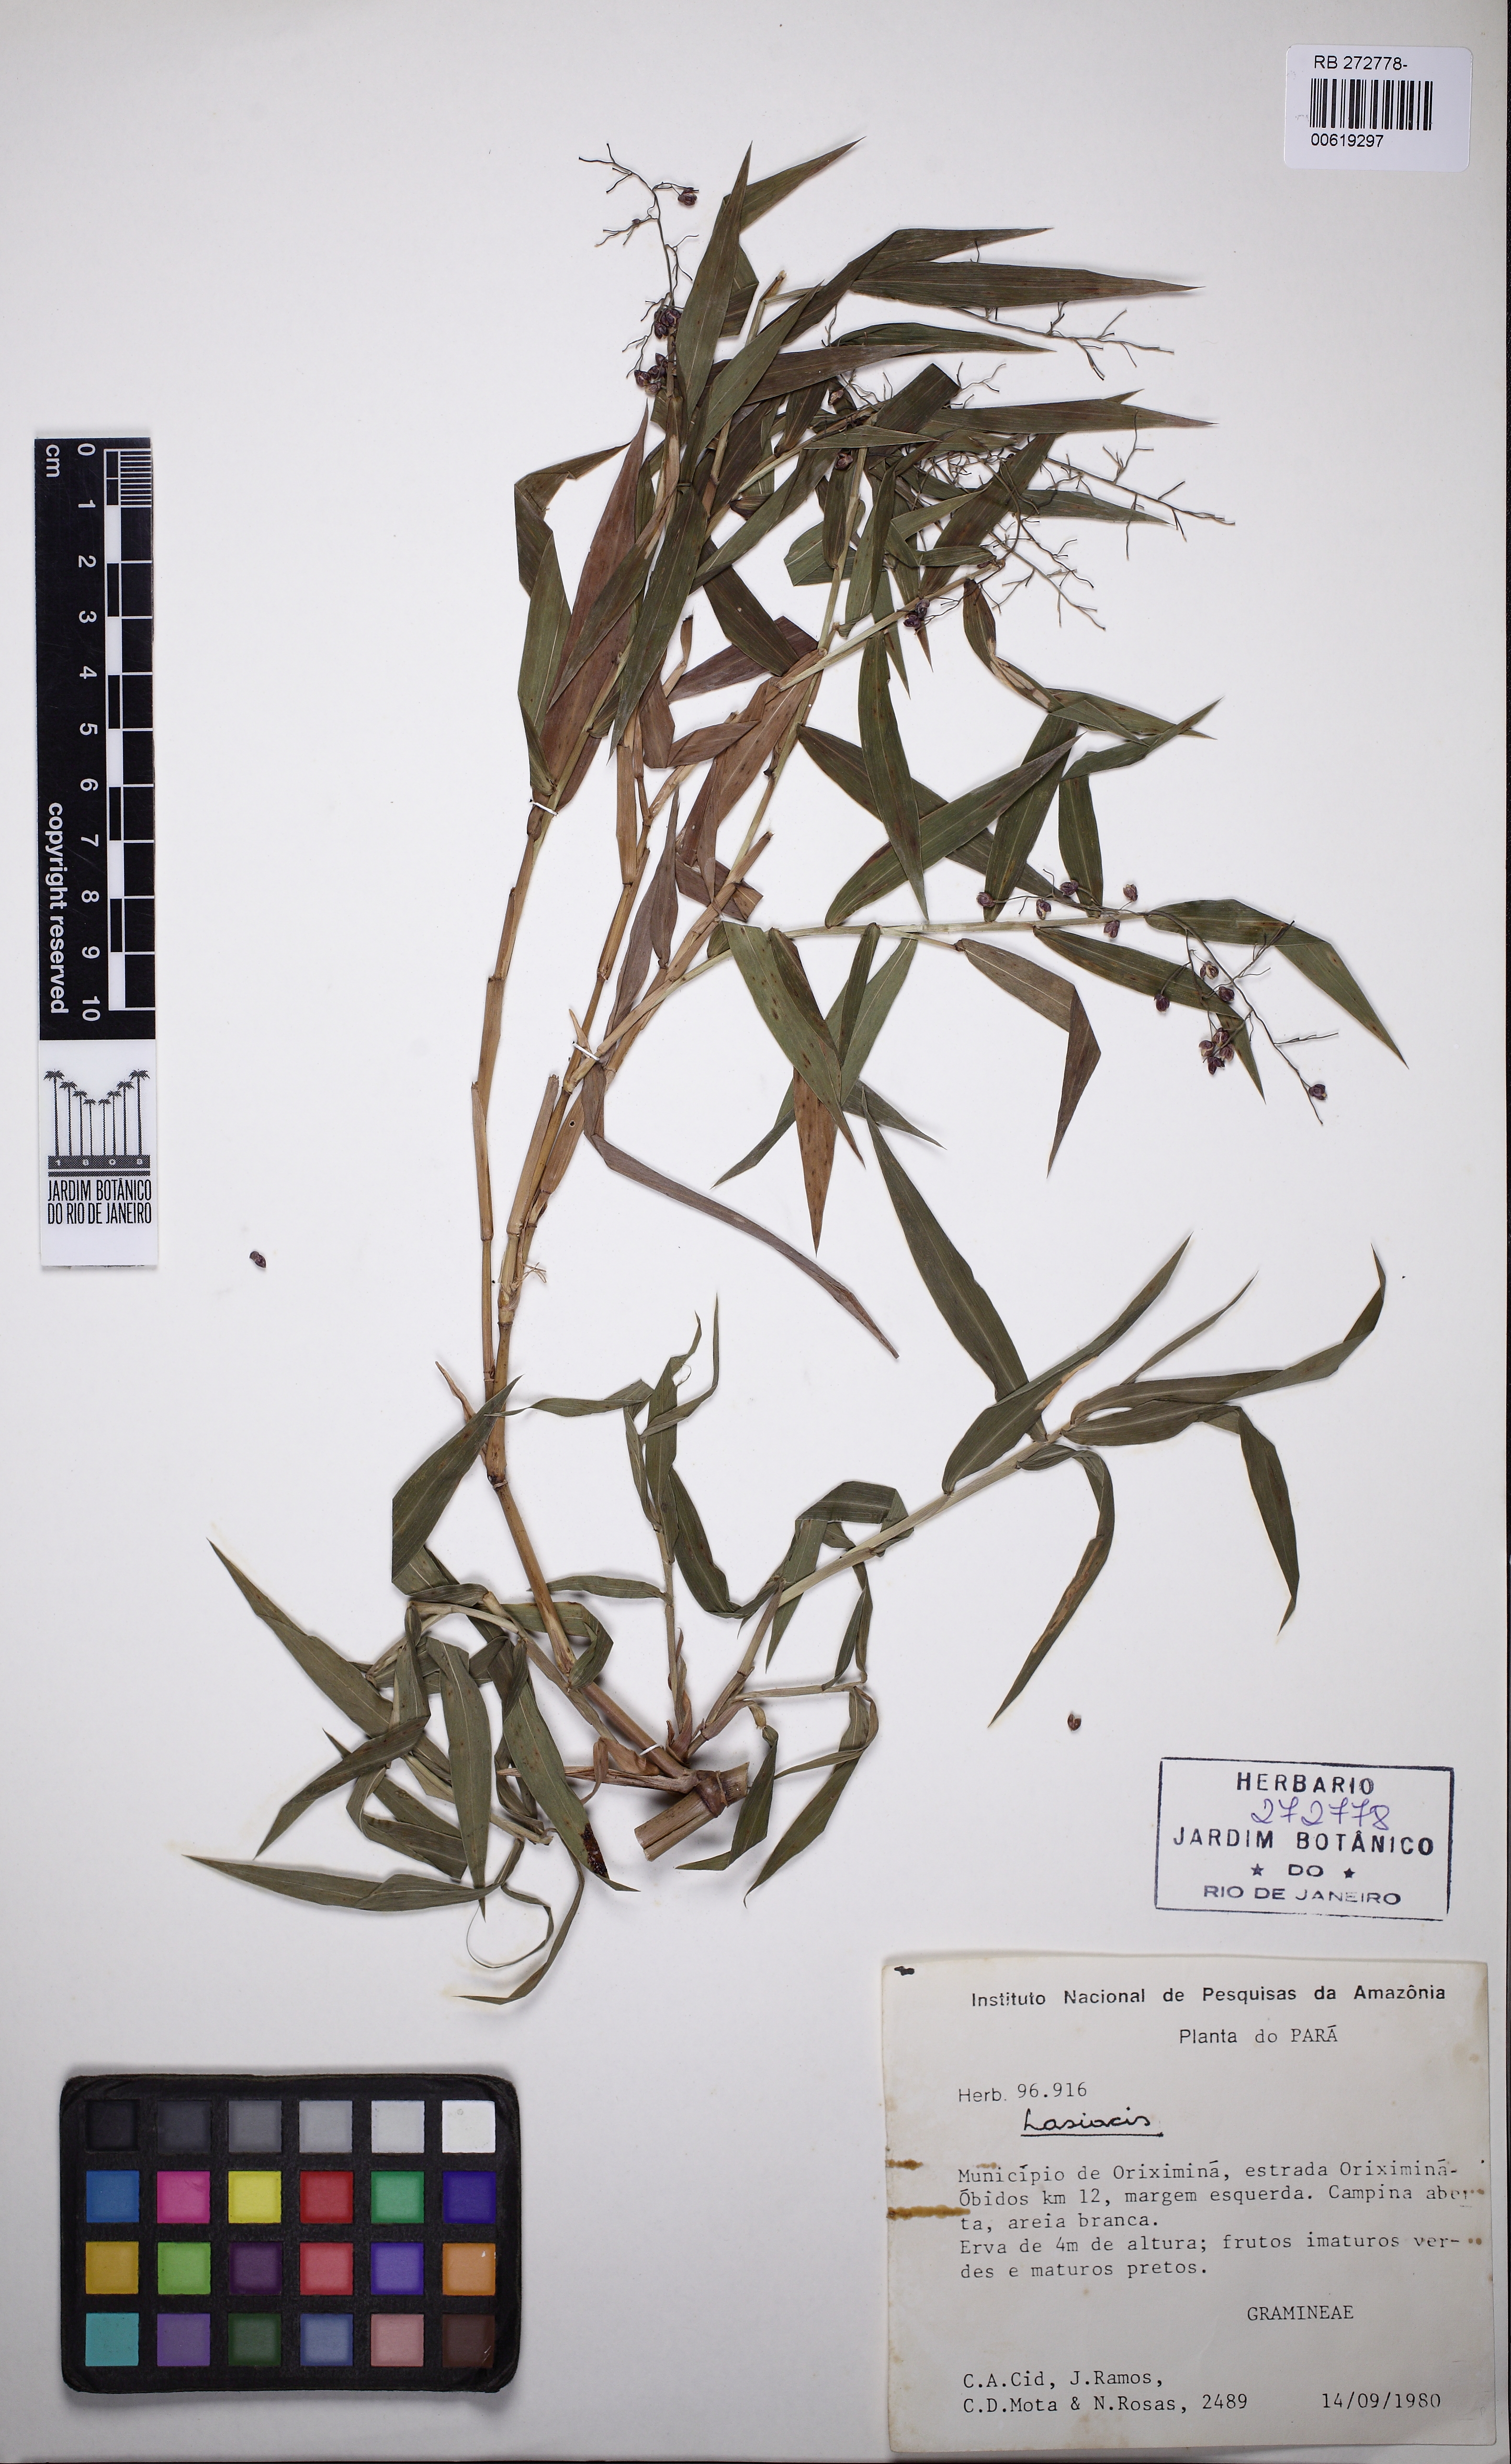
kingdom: Plantae
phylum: Tracheophyta
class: Liliopsida
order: Poales
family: Poaceae
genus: Lasiacis
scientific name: Lasiacis
